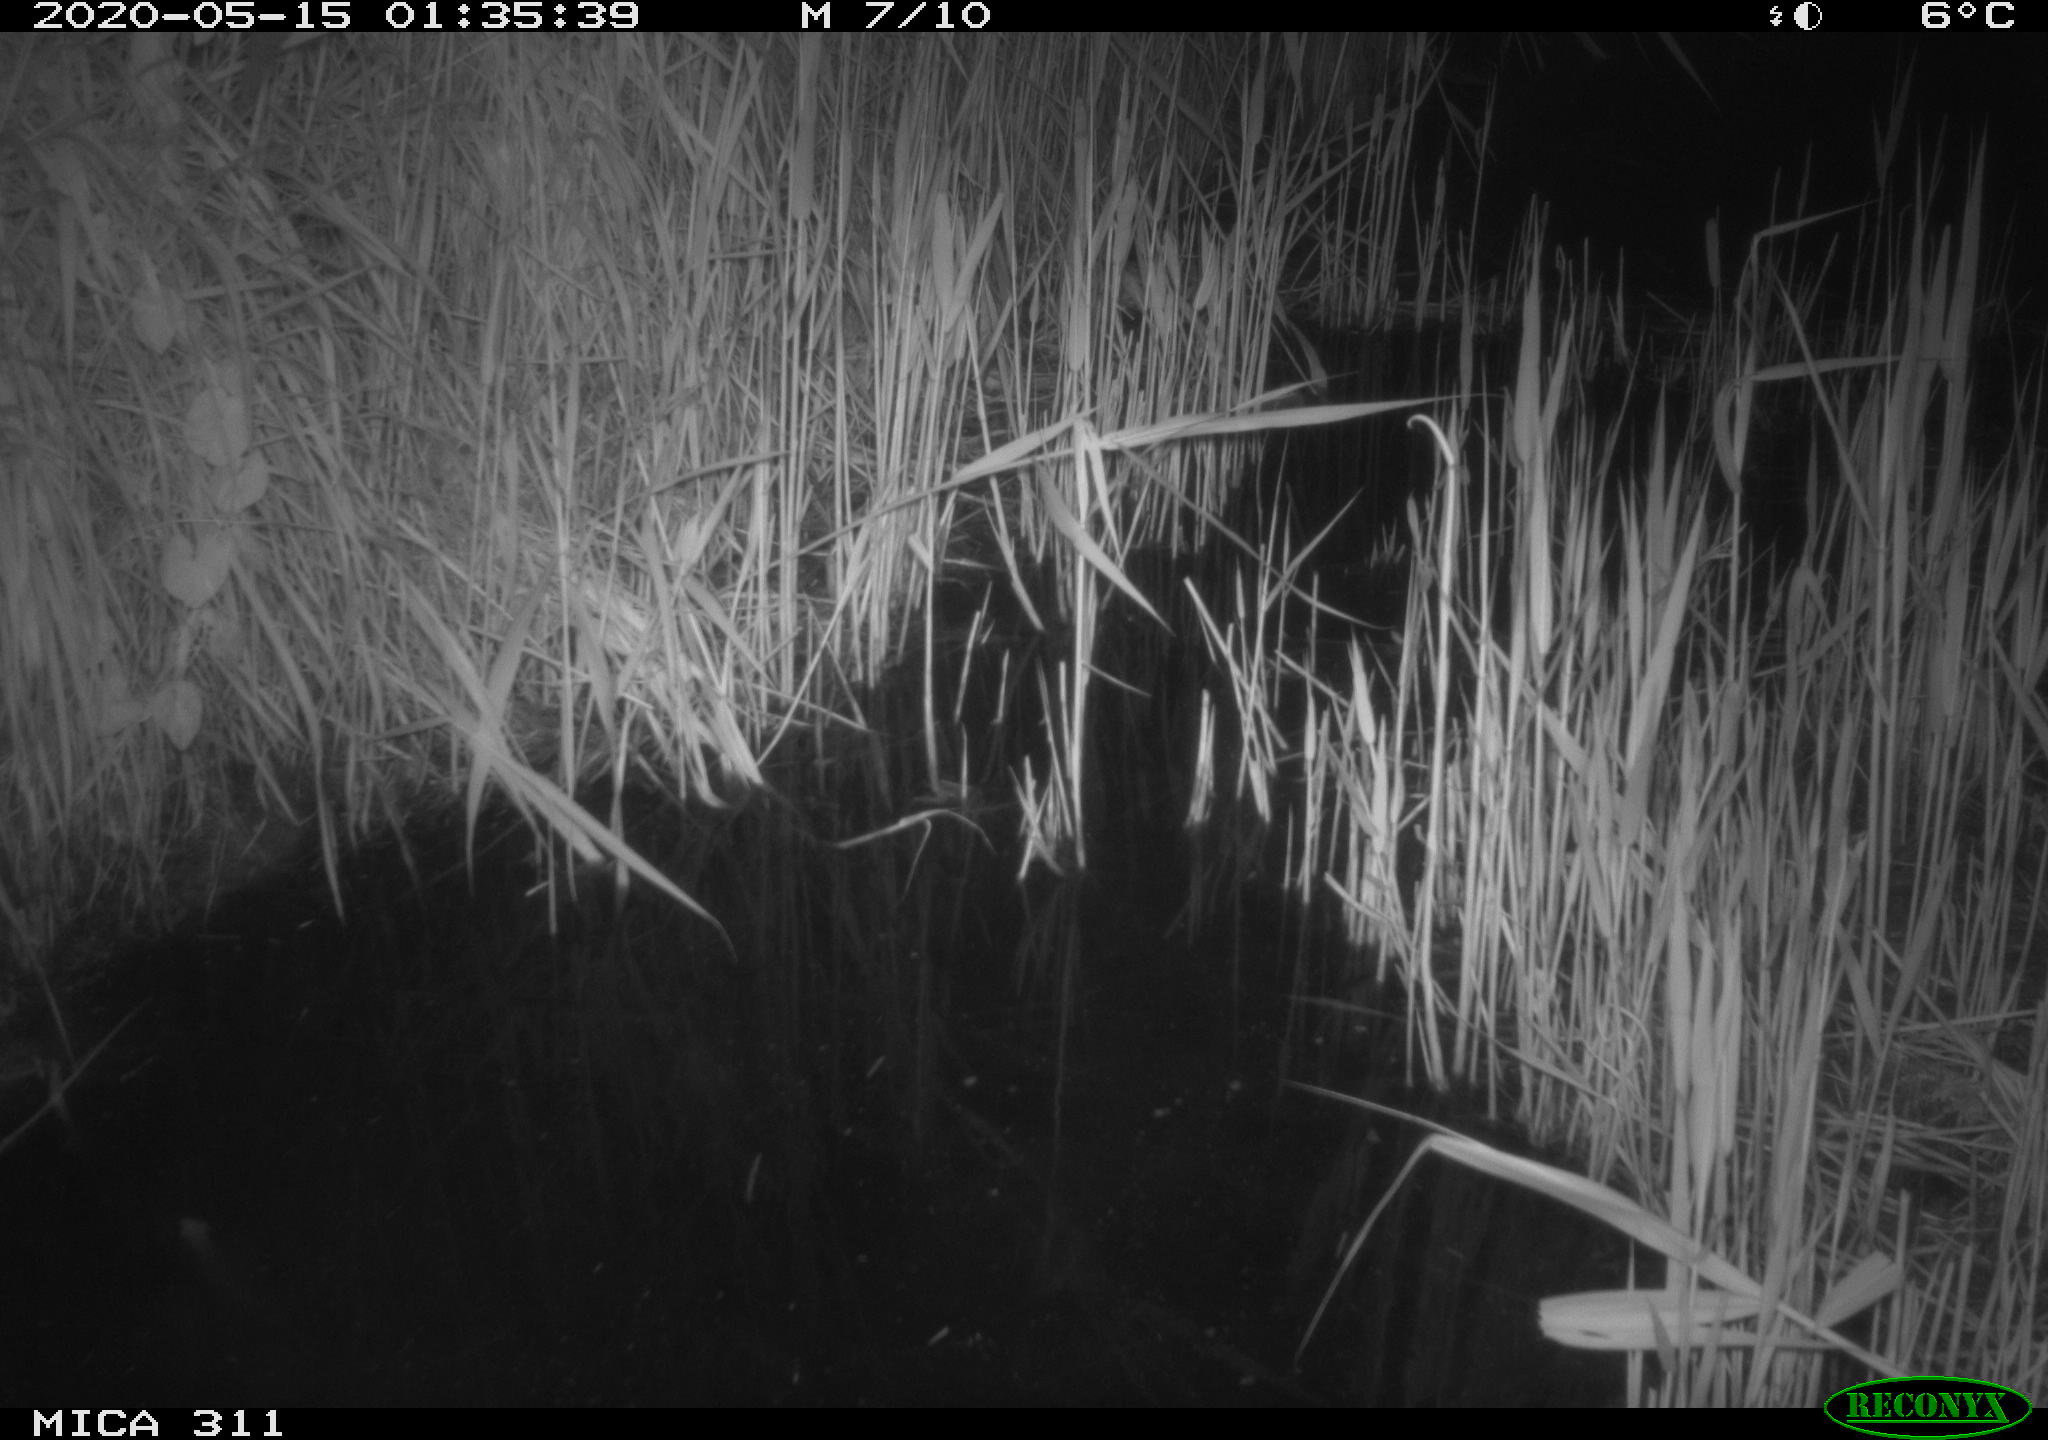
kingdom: Animalia
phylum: Chordata
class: Mammalia
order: Rodentia
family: Muridae
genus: Rattus
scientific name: Rattus norvegicus
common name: Brown rat
